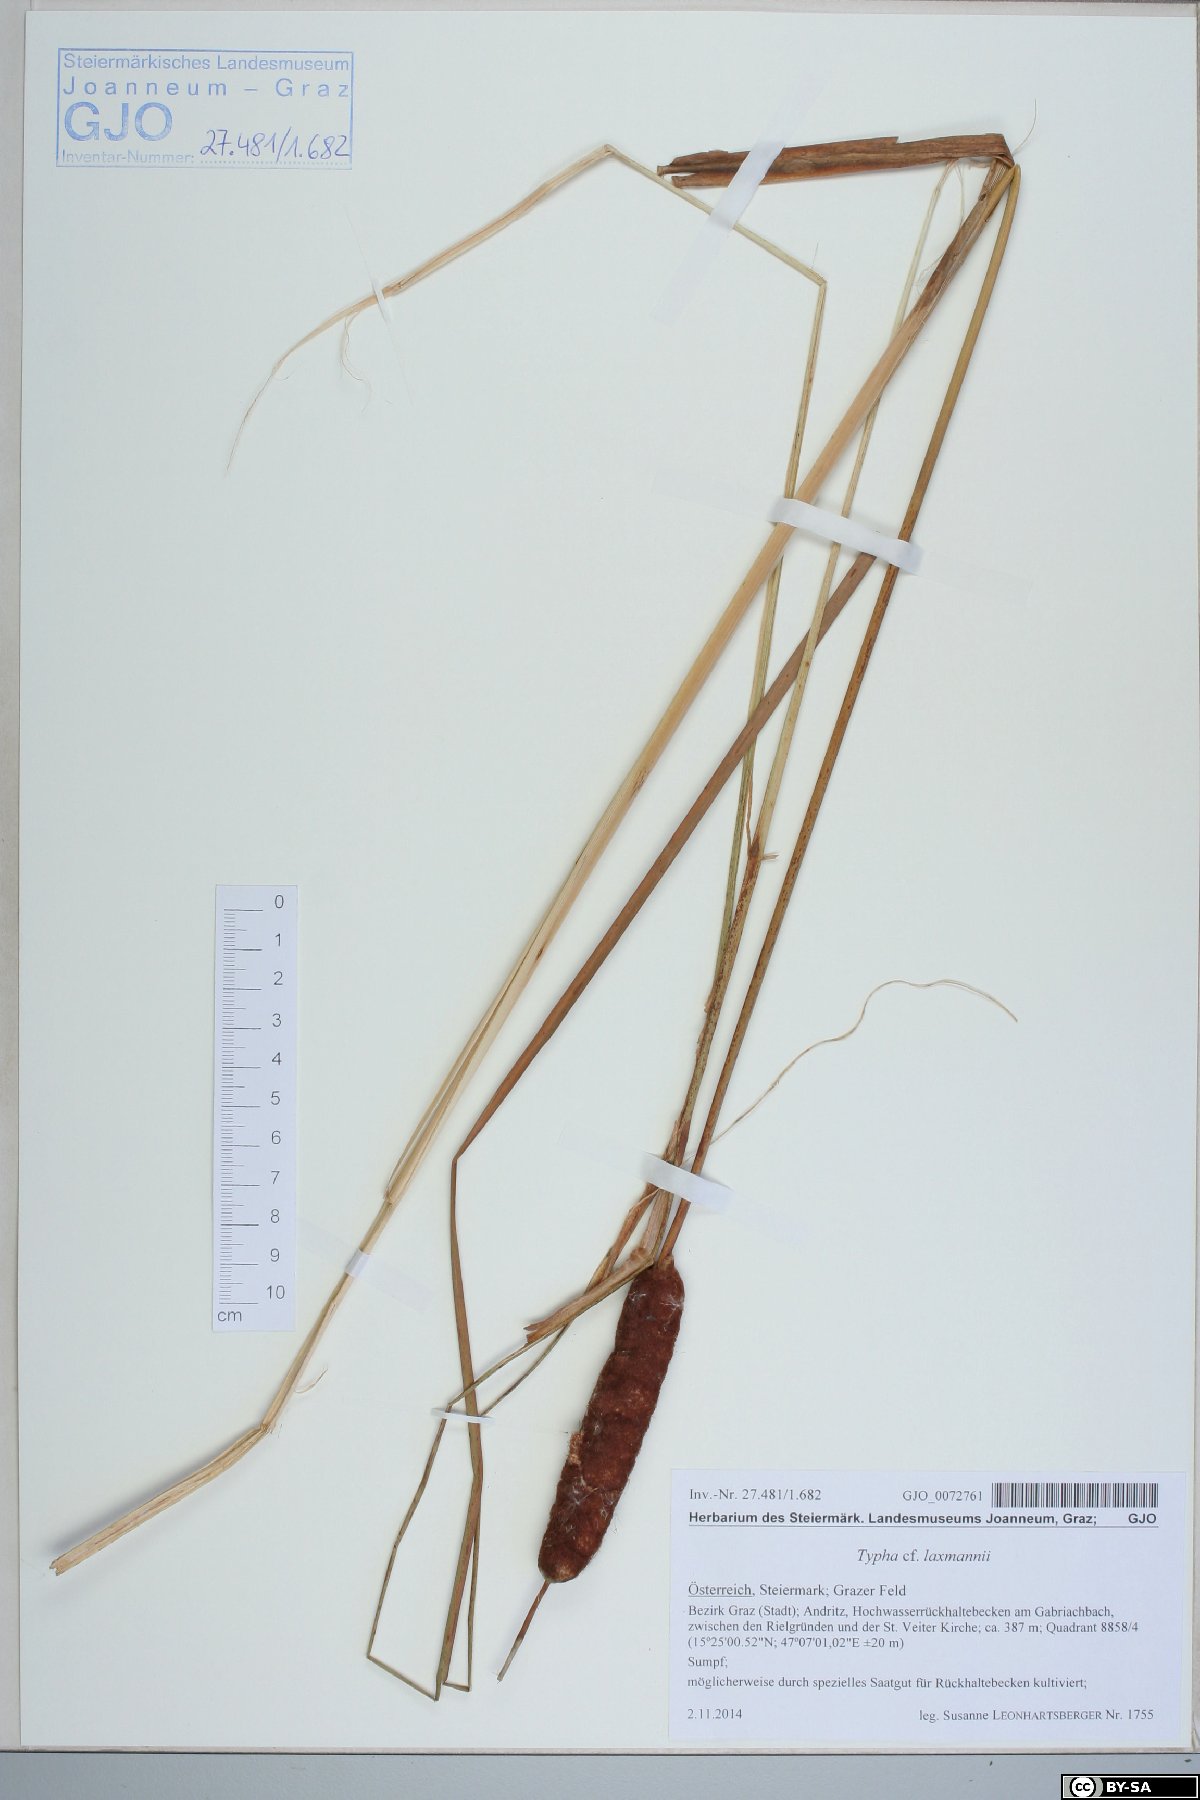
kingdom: Plantae
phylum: Tracheophyta
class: Liliopsida
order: Poales
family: Typhaceae
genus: Typha
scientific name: Typha laxmannii
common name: Laxman’s bulrush
